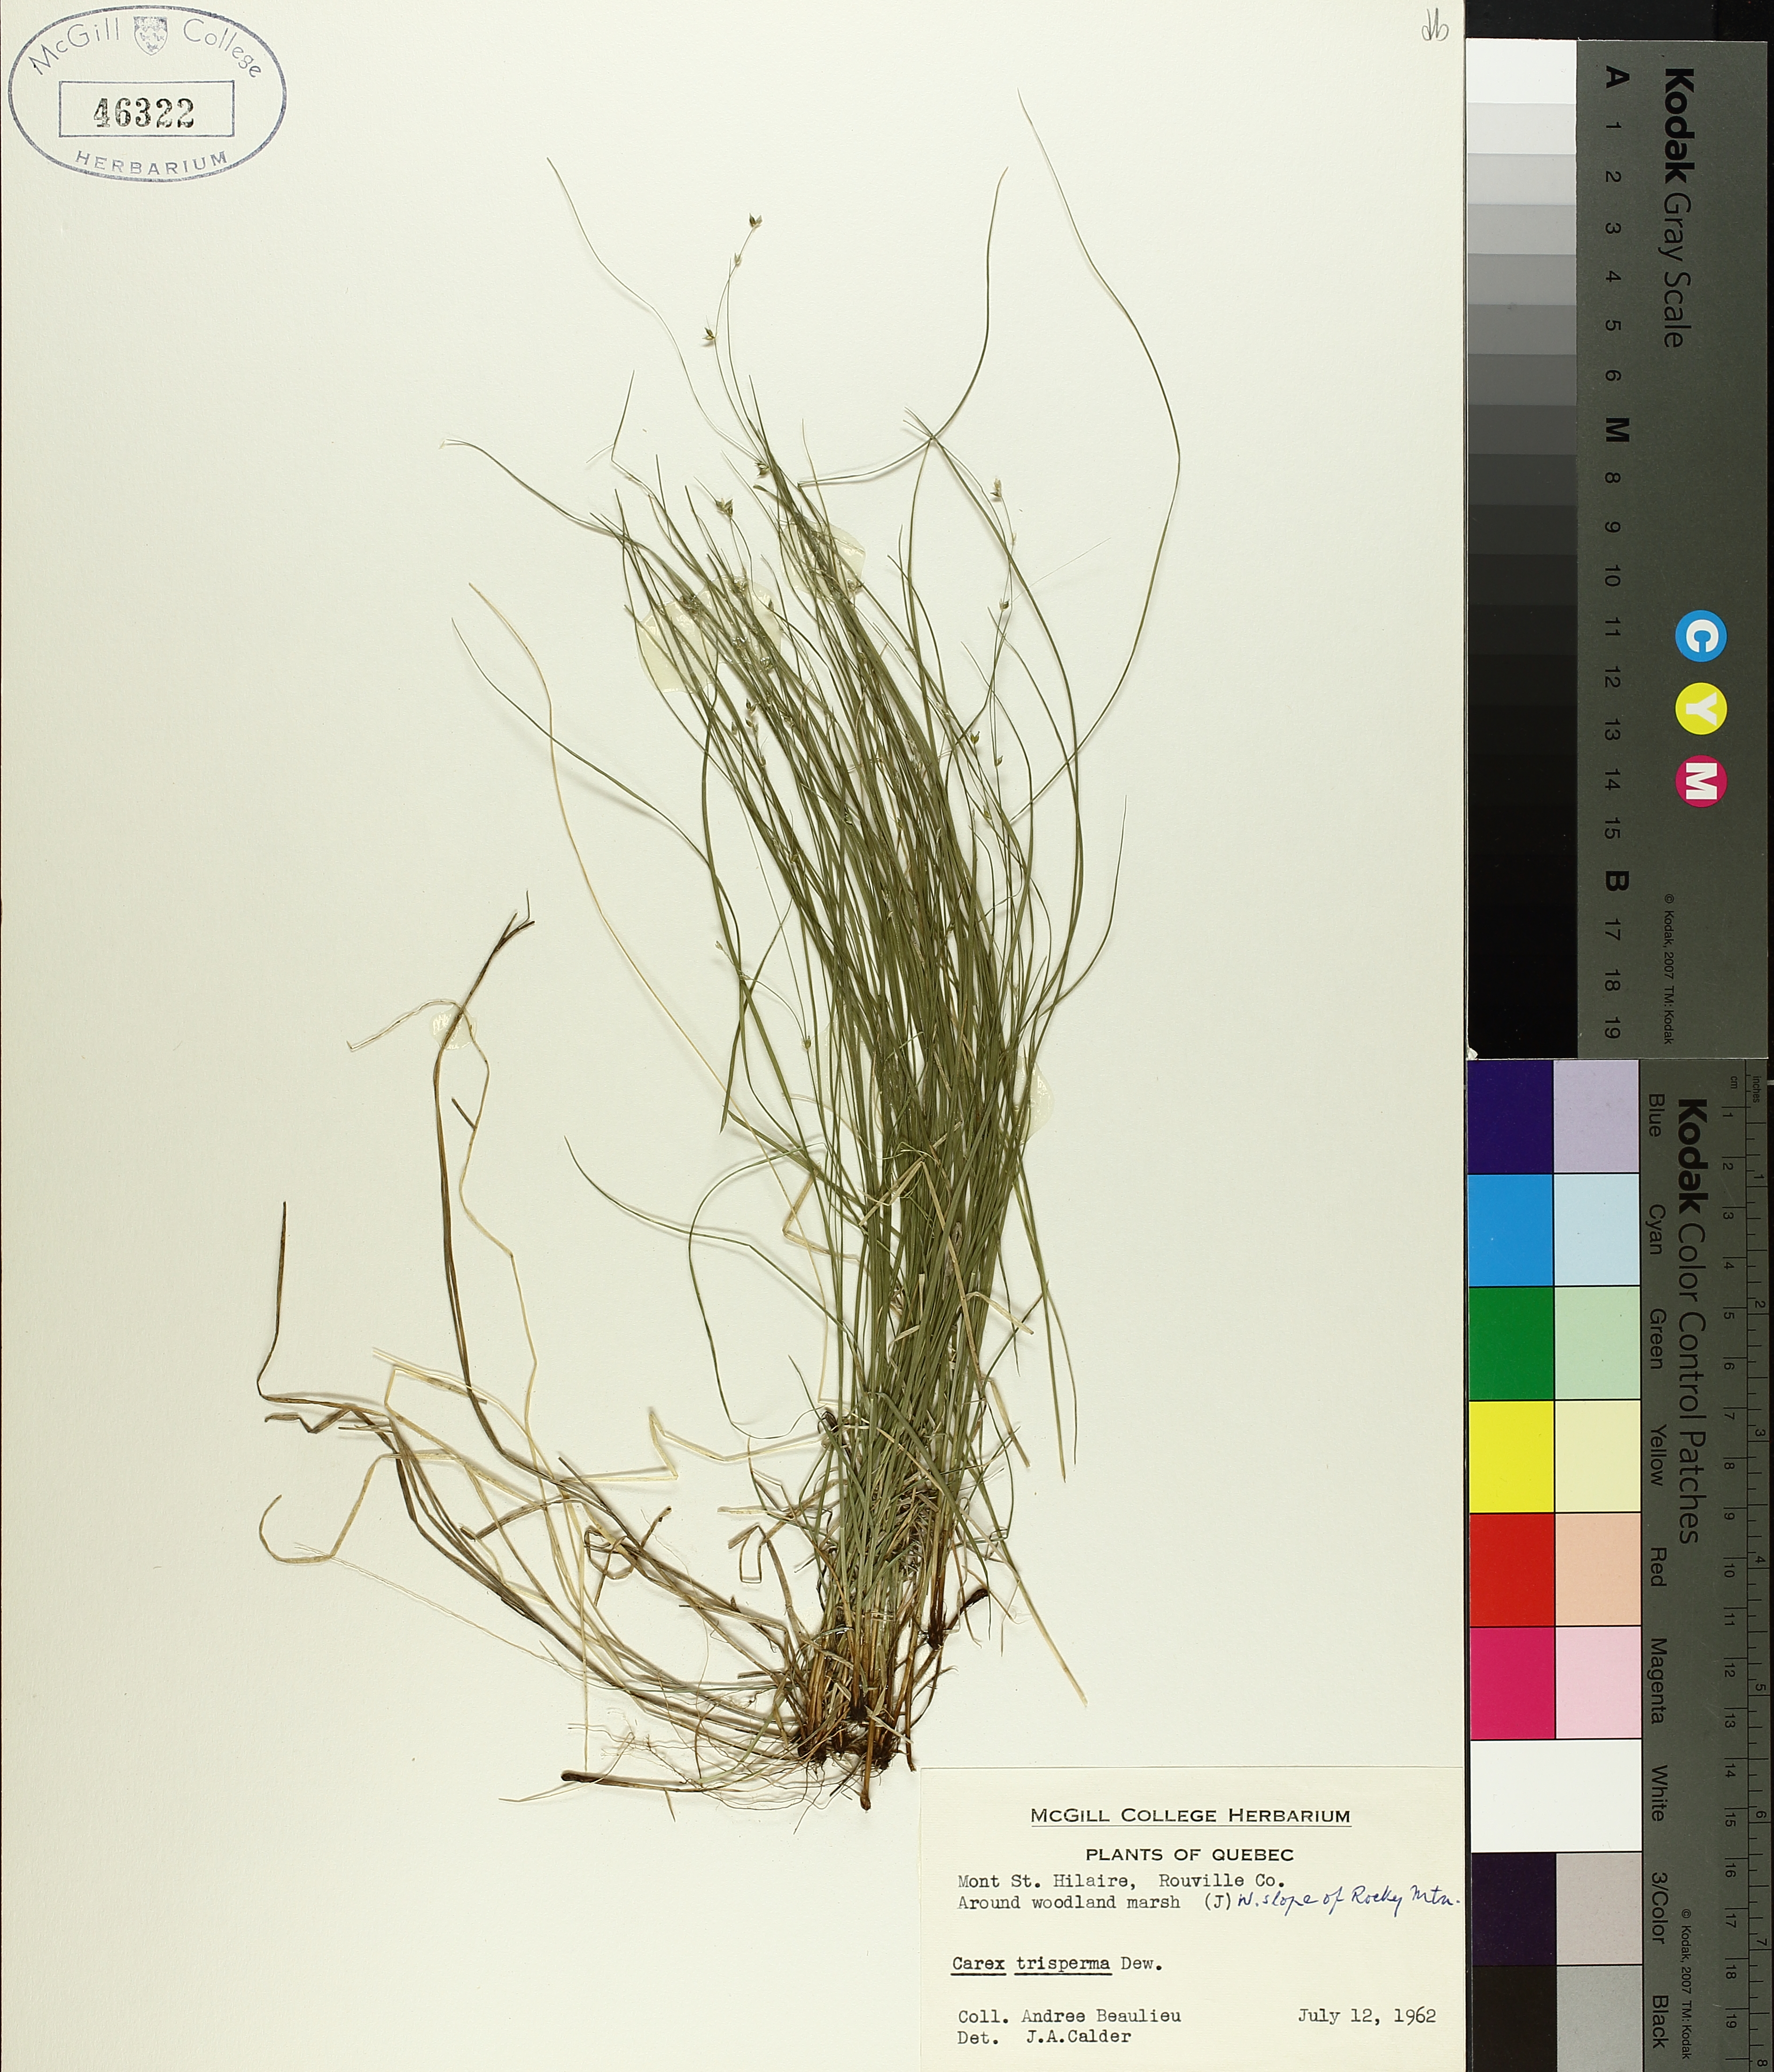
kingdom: Plantae
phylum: Tracheophyta
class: Liliopsida
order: Poales
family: Cyperaceae
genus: Carex
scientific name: Carex trisperma
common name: Three-seeded sedge
